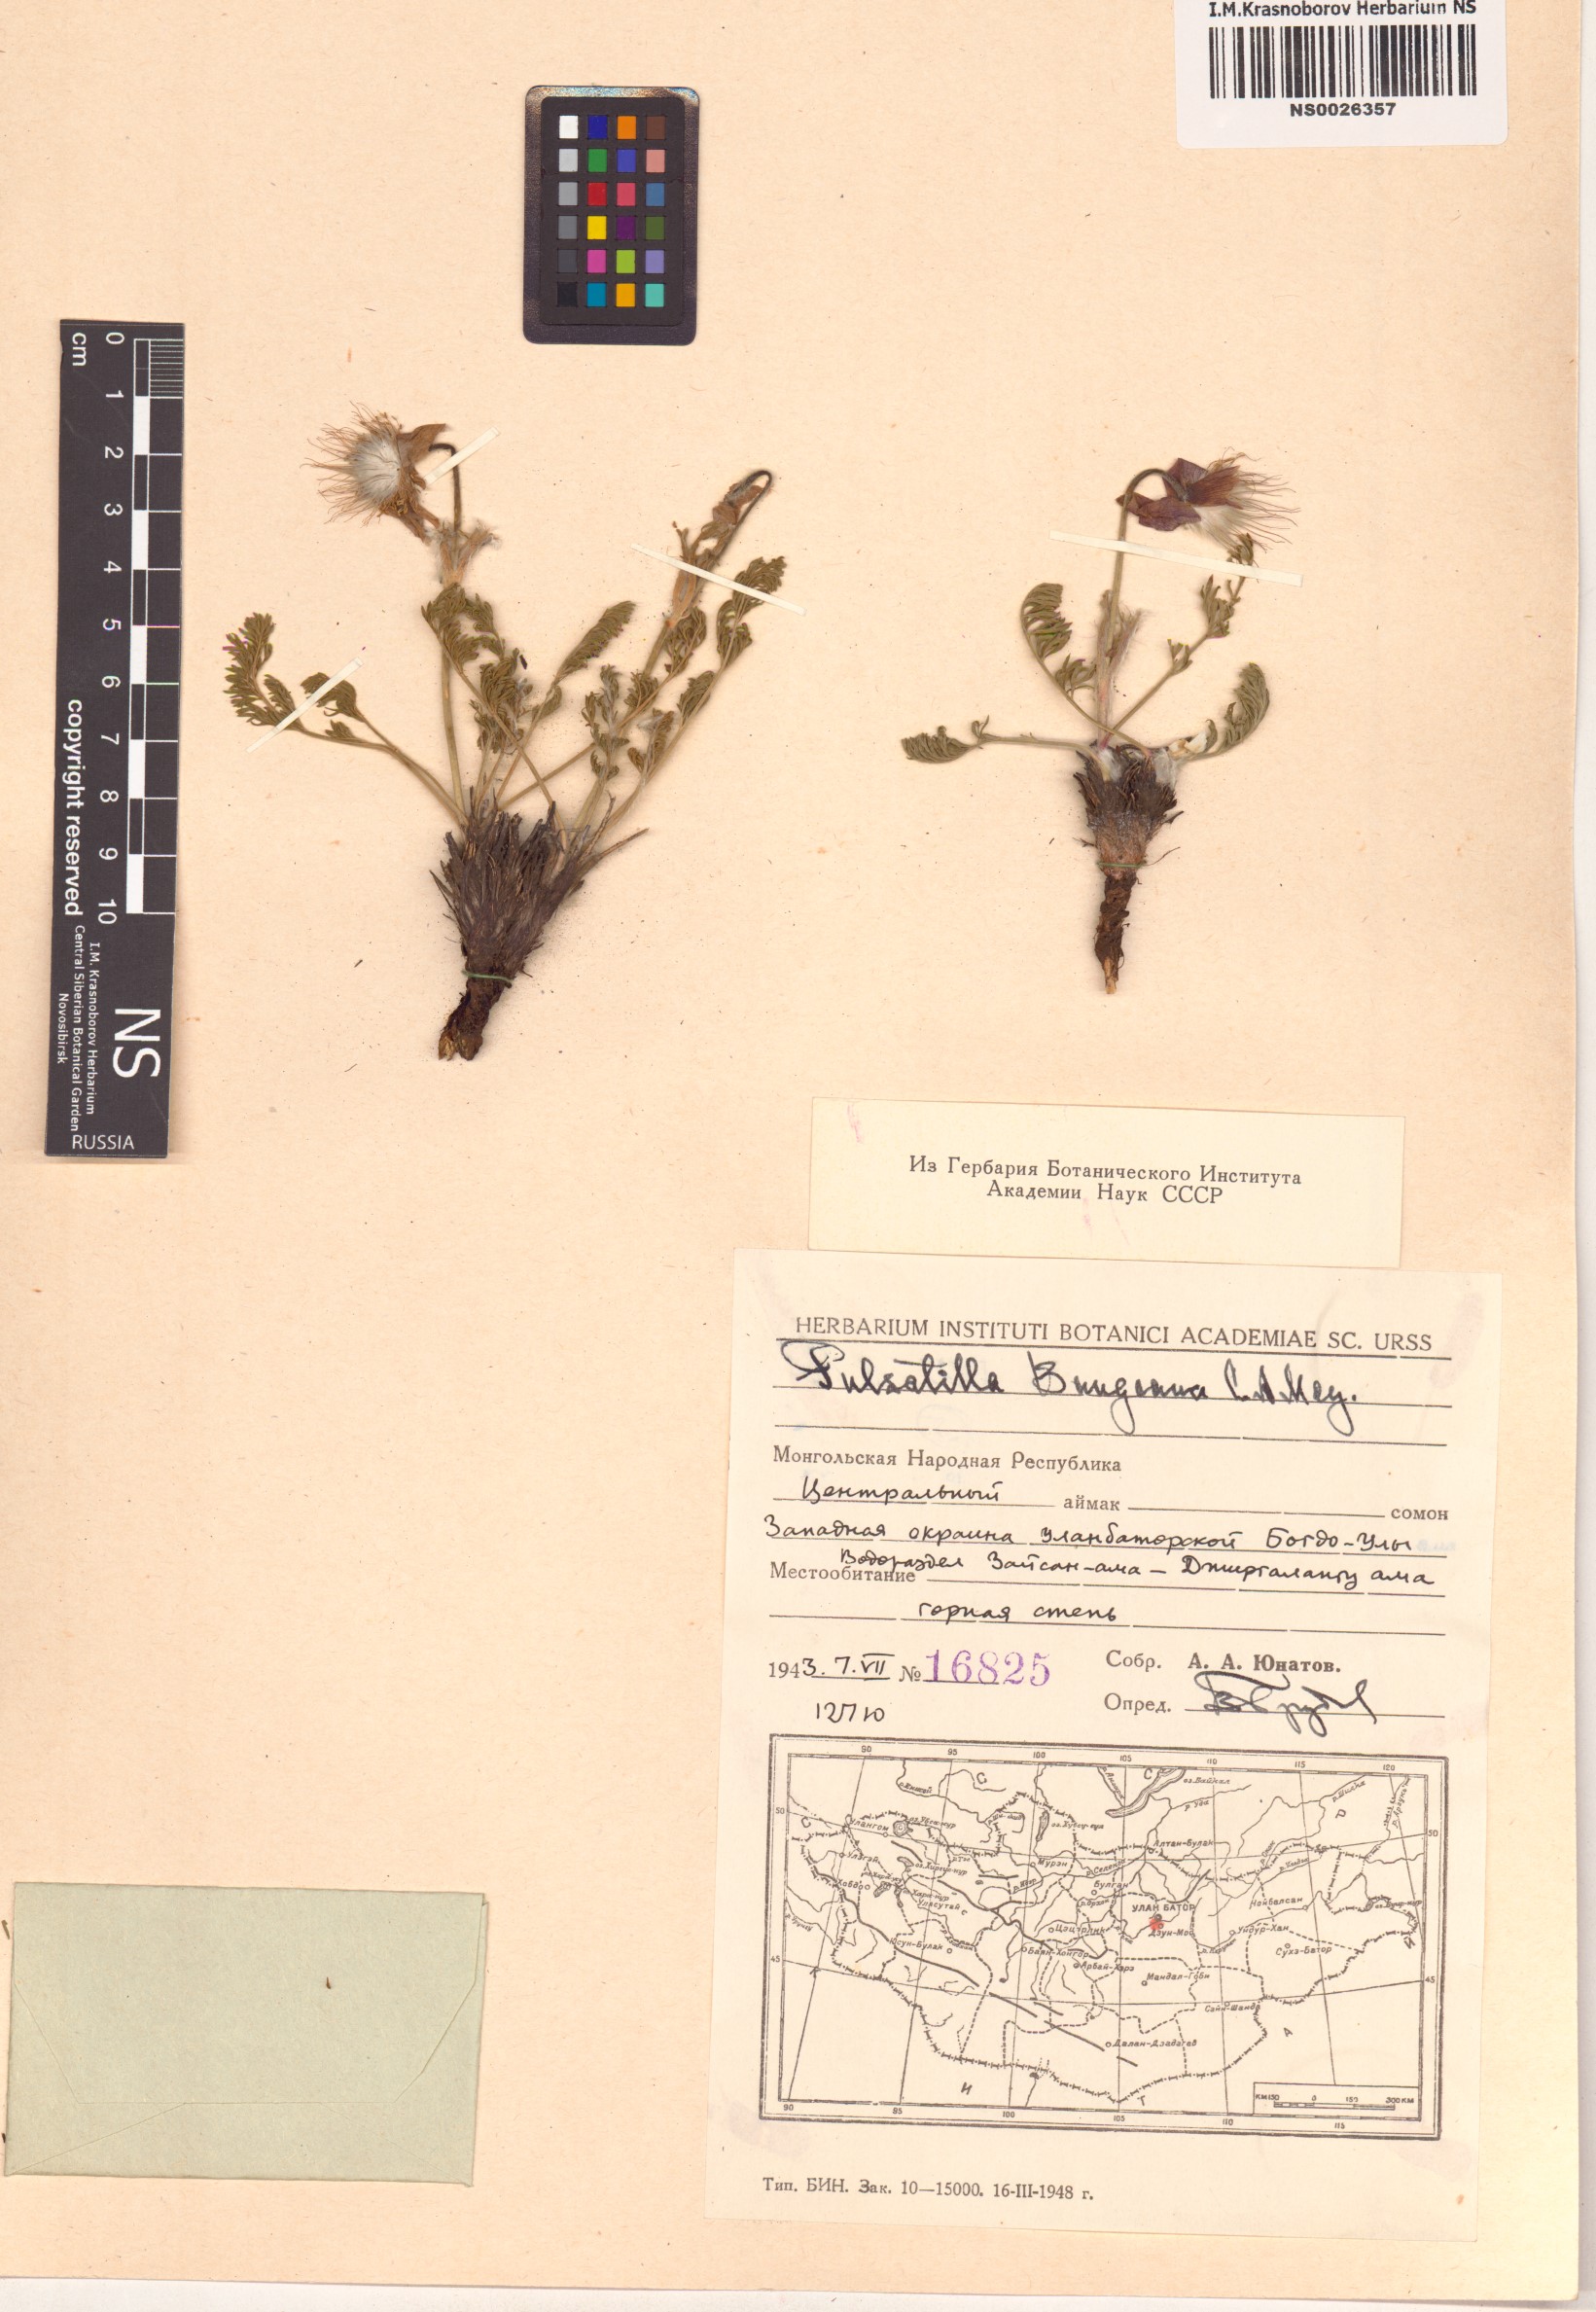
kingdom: Plantae
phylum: Tracheophyta
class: Magnoliopsida
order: Ranunculales
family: Ranunculaceae
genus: Pulsatilla
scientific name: Pulsatilla bungeana
